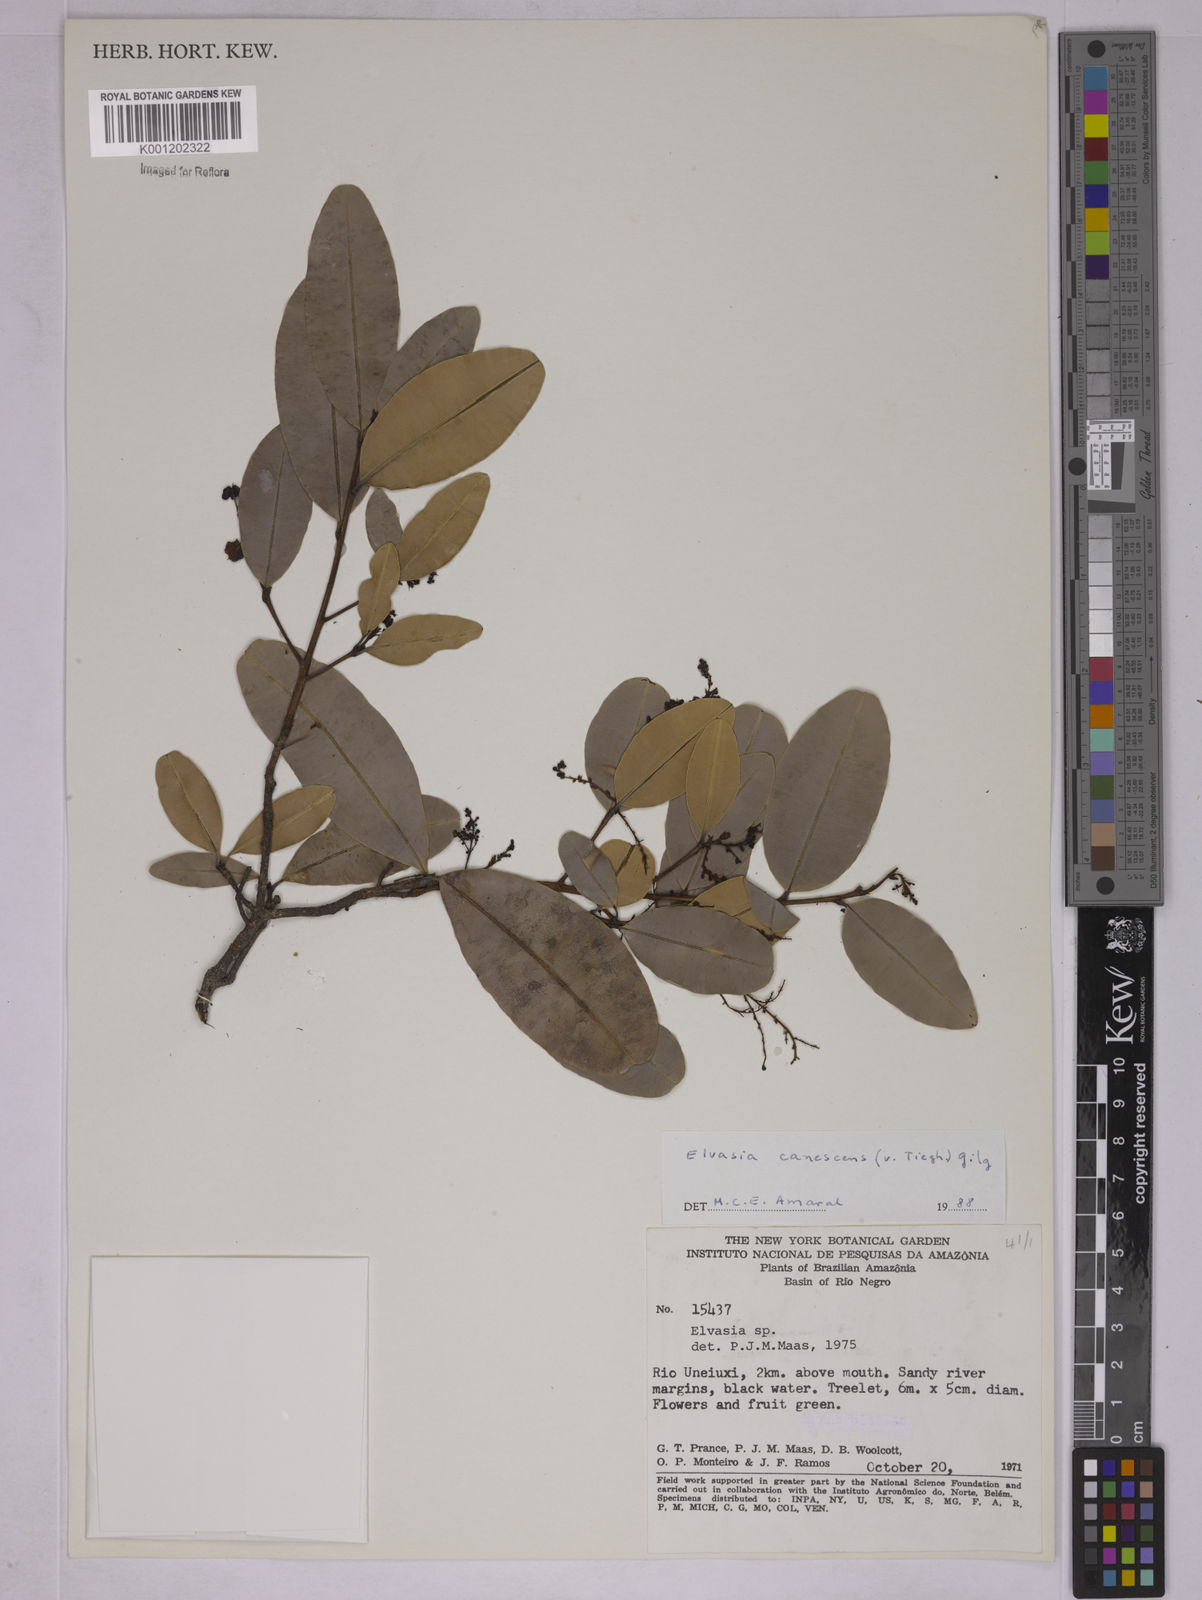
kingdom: Plantae
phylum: Tracheophyta
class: Magnoliopsida
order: Malpighiales
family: Ochnaceae
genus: Elvasia
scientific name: Elvasia canescens
